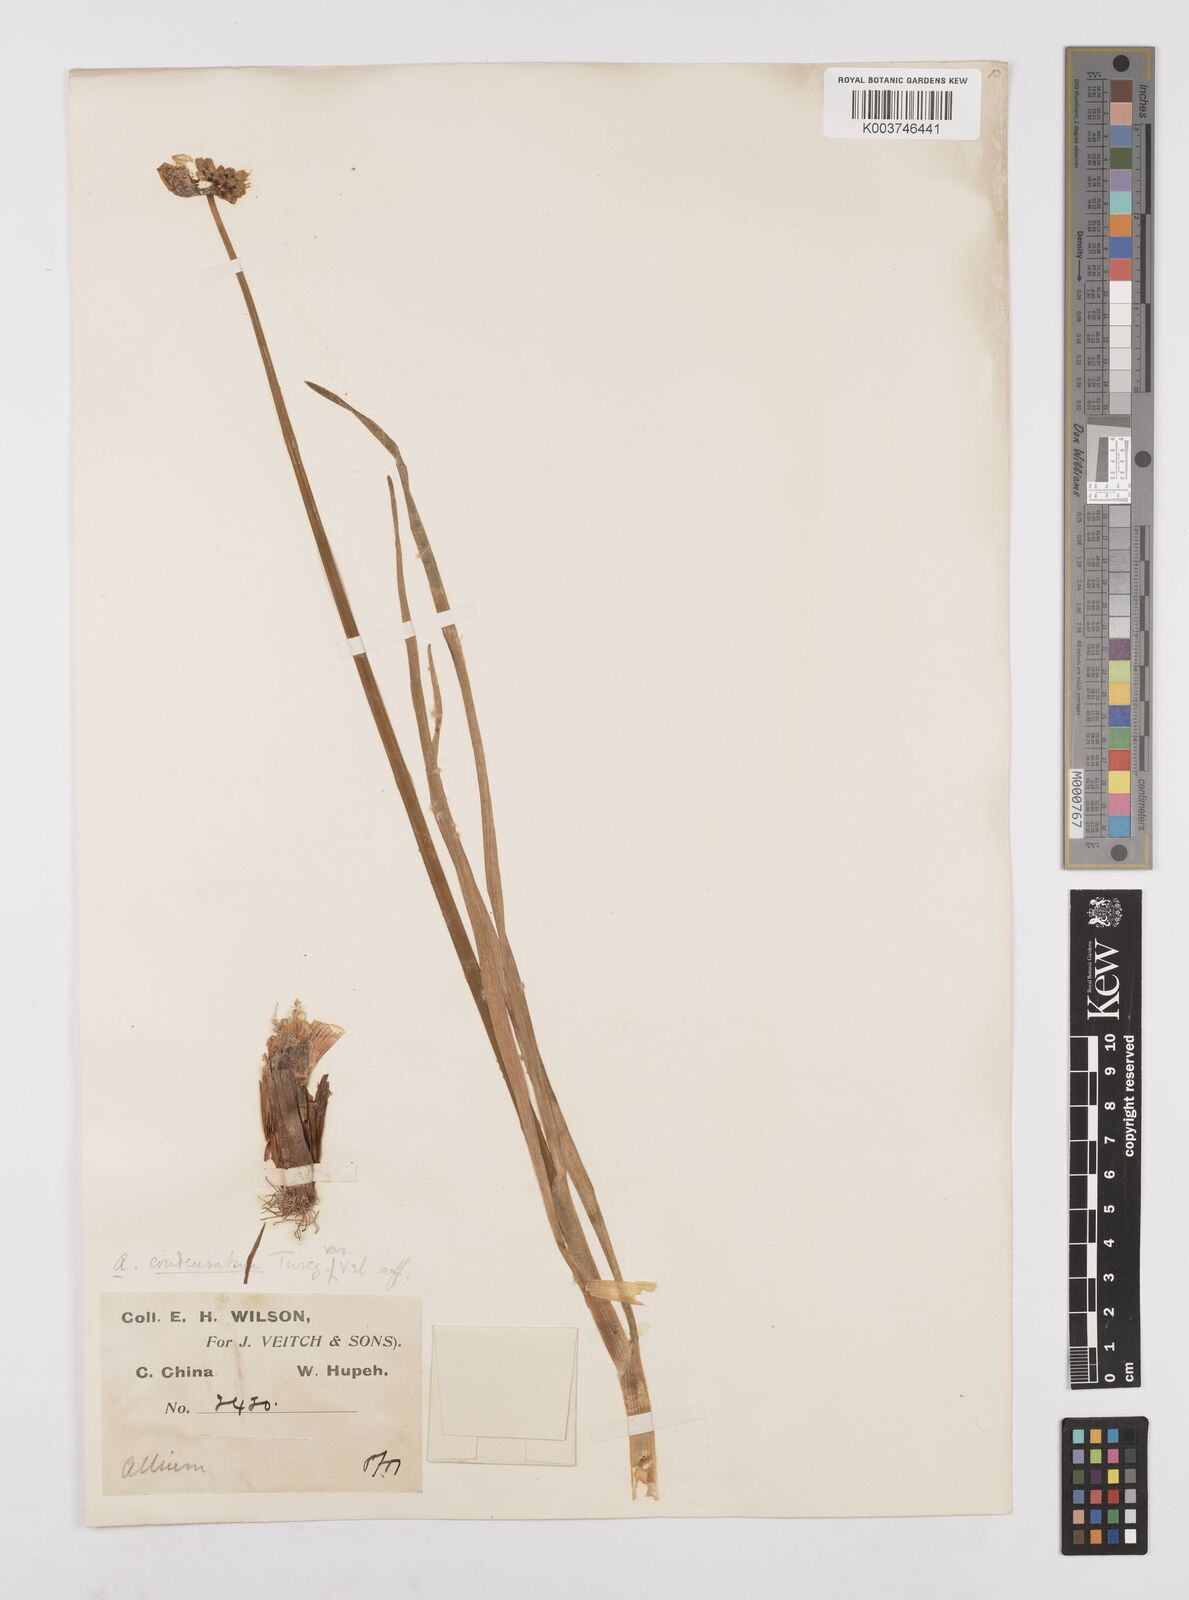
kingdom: Plantae
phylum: Tracheophyta
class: Liliopsida
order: Asparagales
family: Amaryllidaceae
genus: Allium
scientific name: Allium chrysanthum
